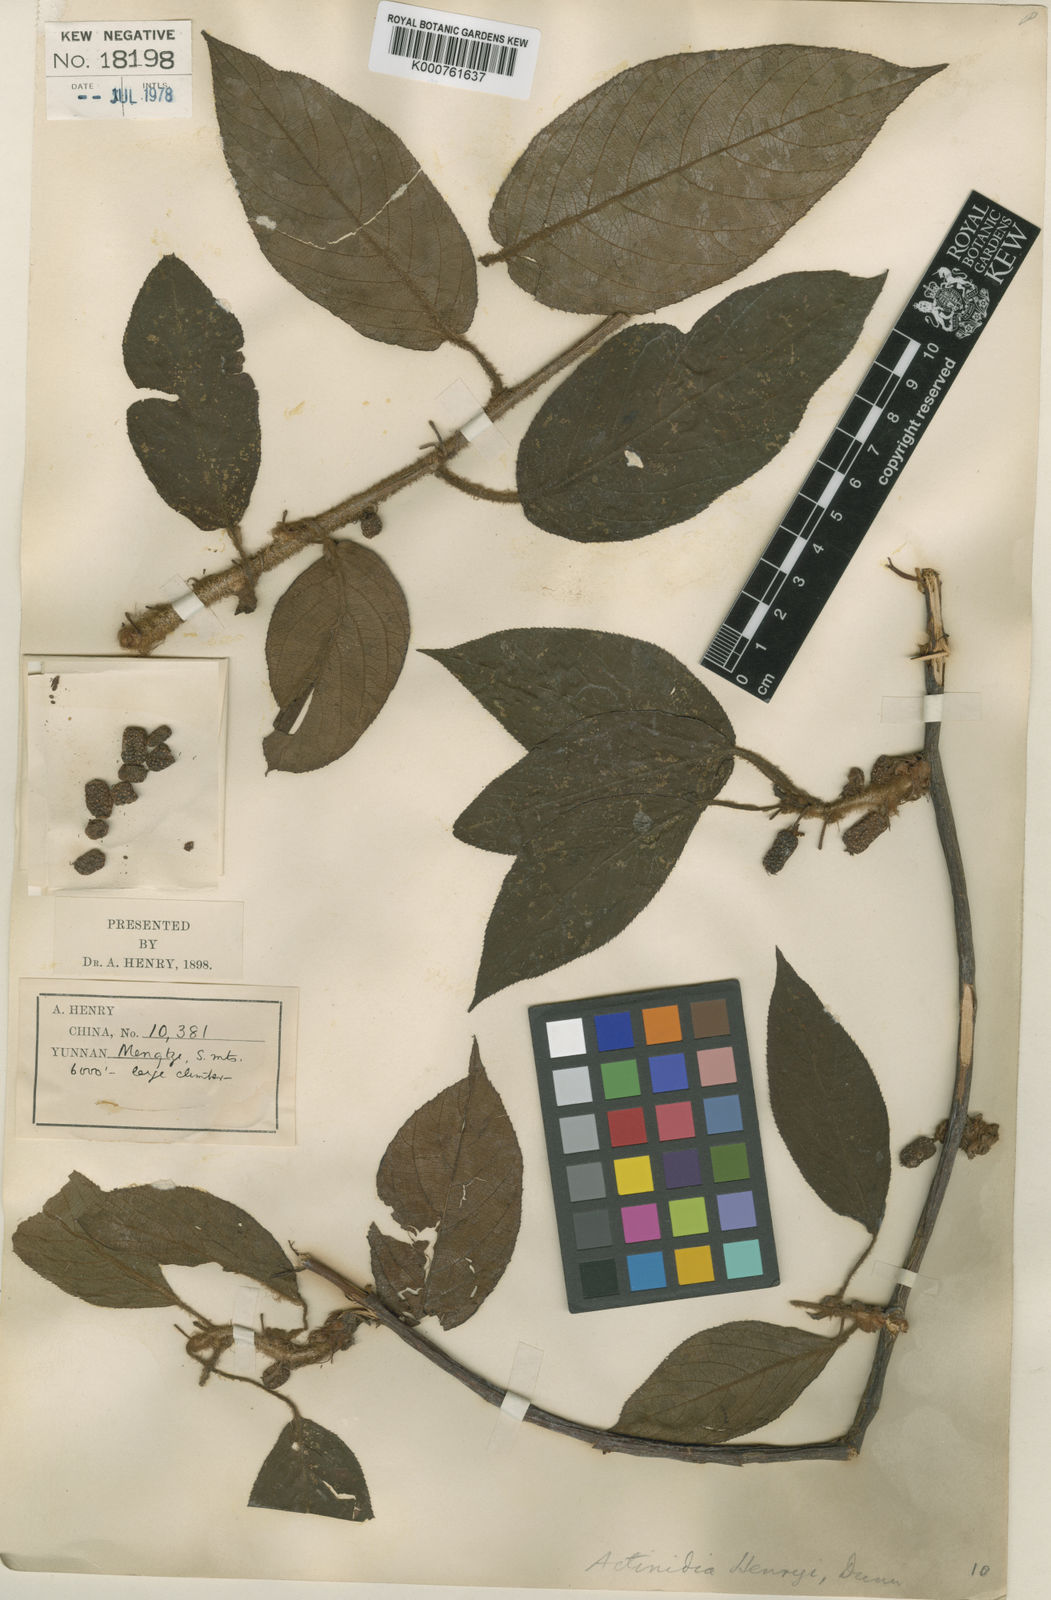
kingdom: Plantae
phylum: Tracheophyta
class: Magnoliopsida
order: Ericales
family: Actinidiaceae
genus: Actinidia
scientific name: Actinidia henryi
